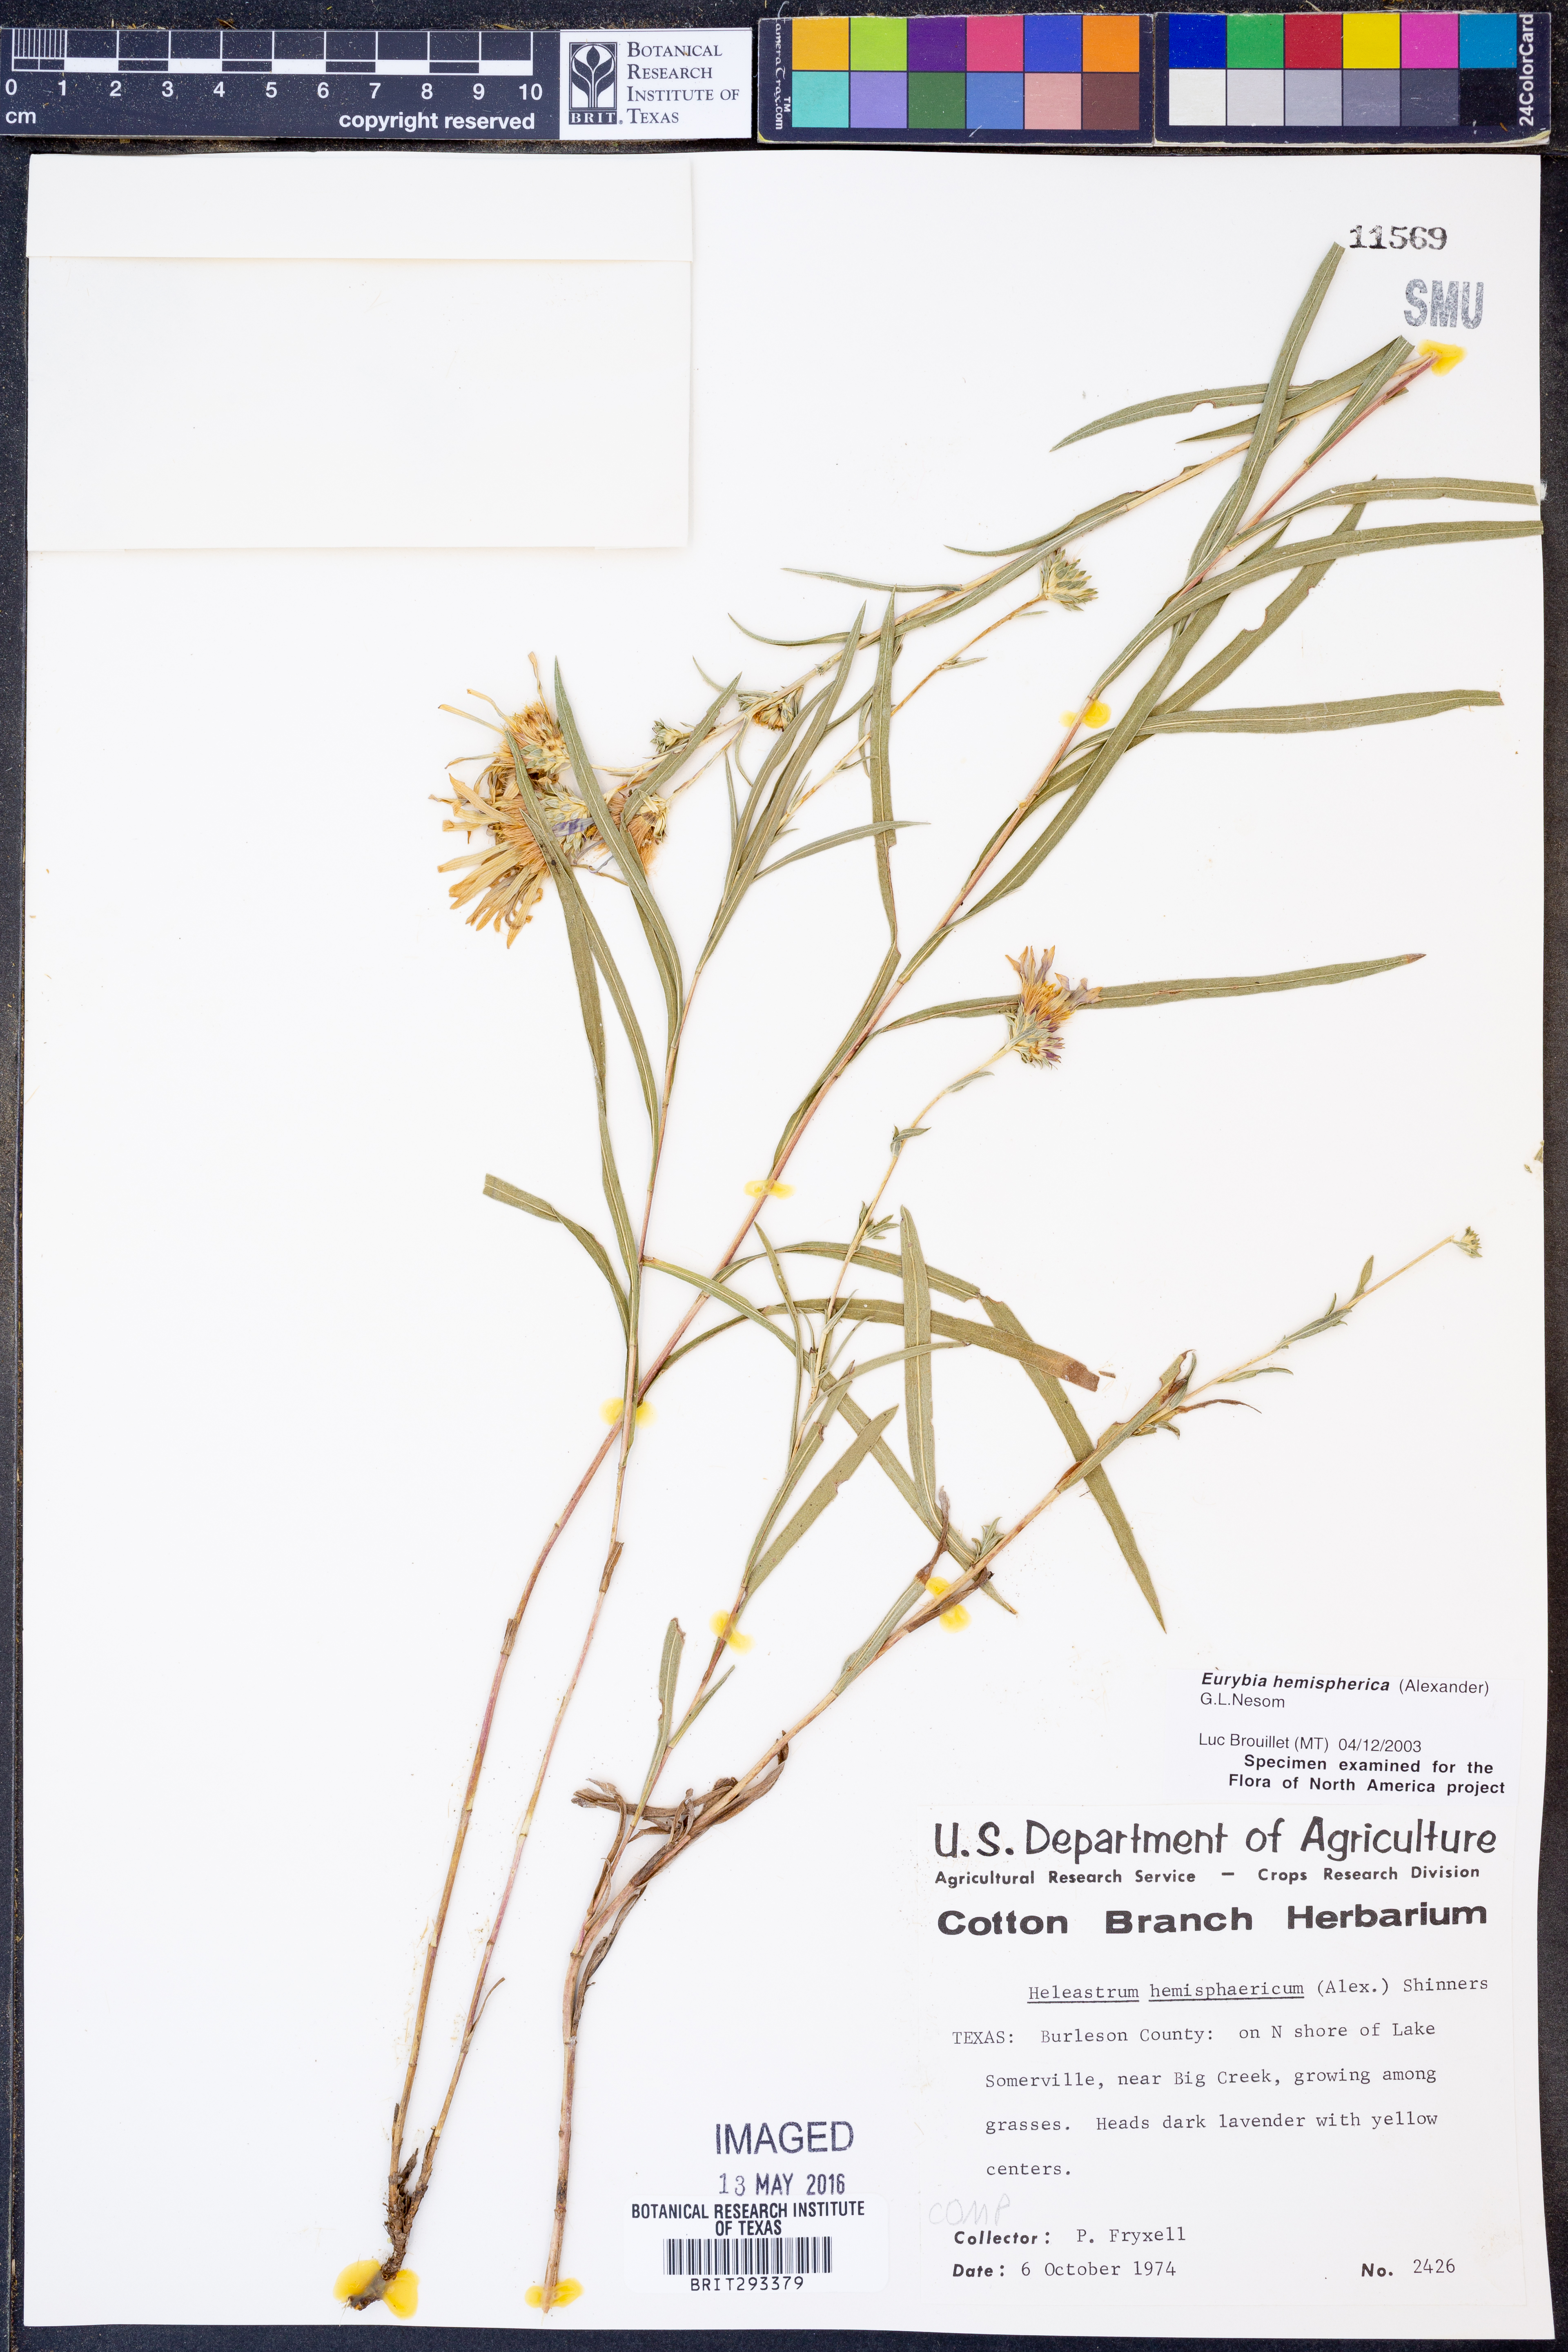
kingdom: Plantae
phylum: Tracheophyta
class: Magnoliopsida
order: Asterales
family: Asteraceae
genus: Eurybia
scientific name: Eurybia hemispherica
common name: Showy aster
